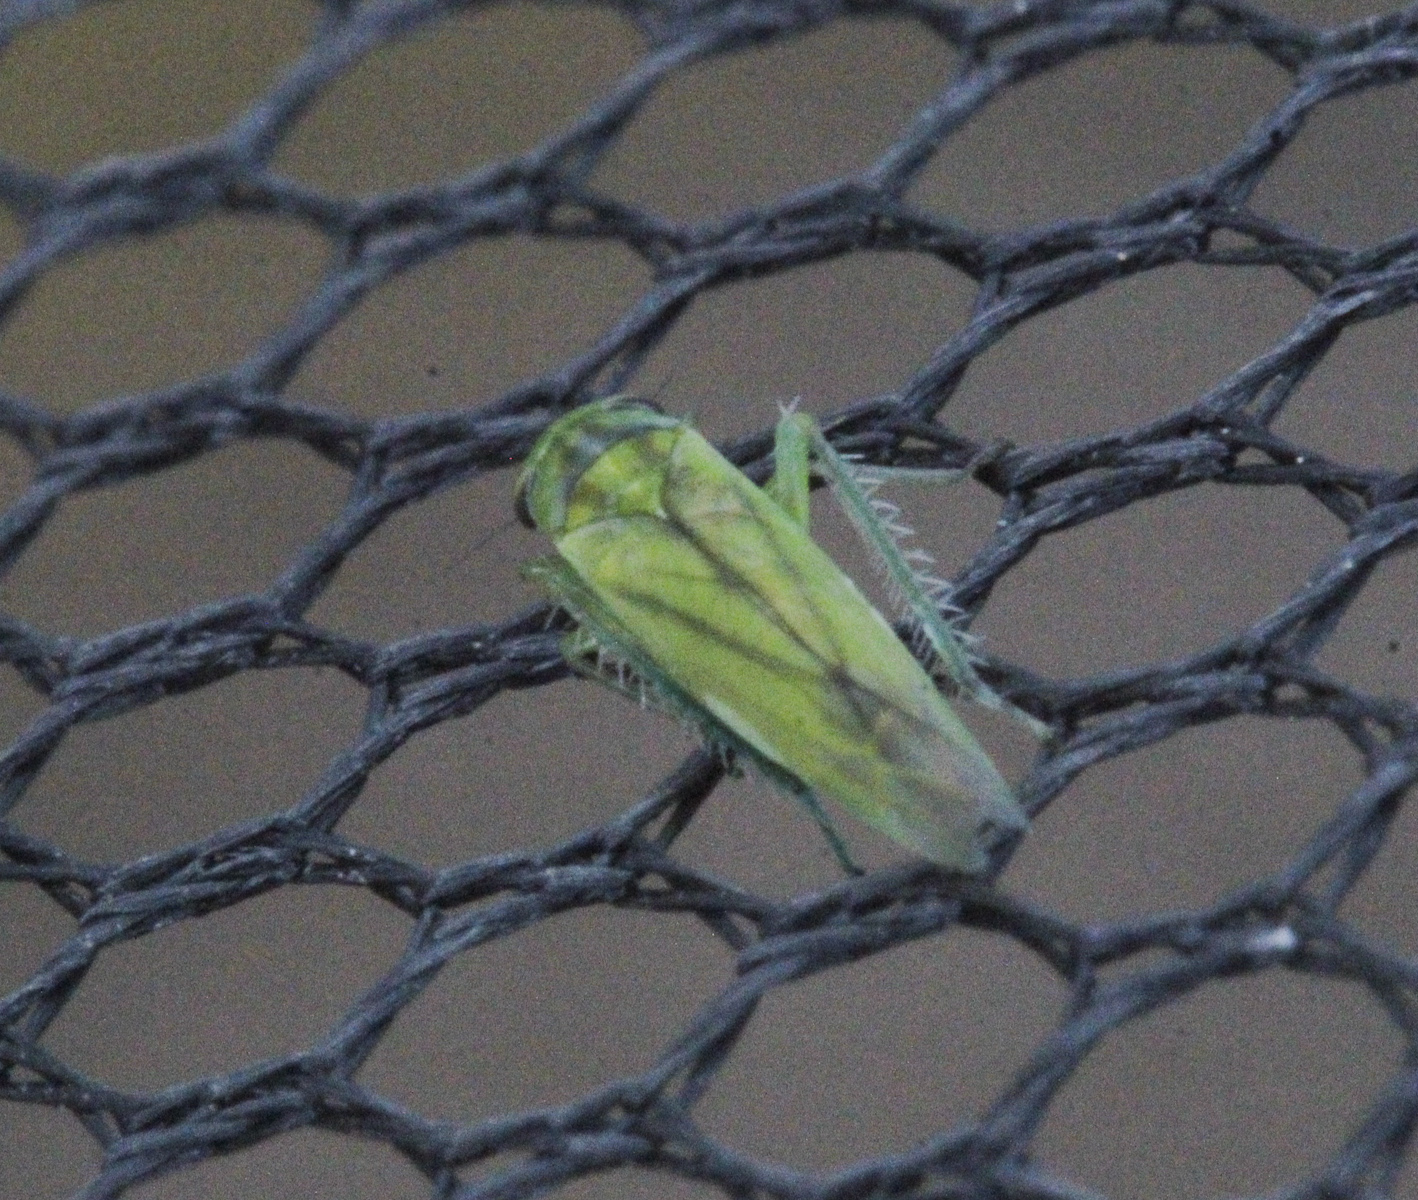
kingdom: Animalia
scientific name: Animalia
